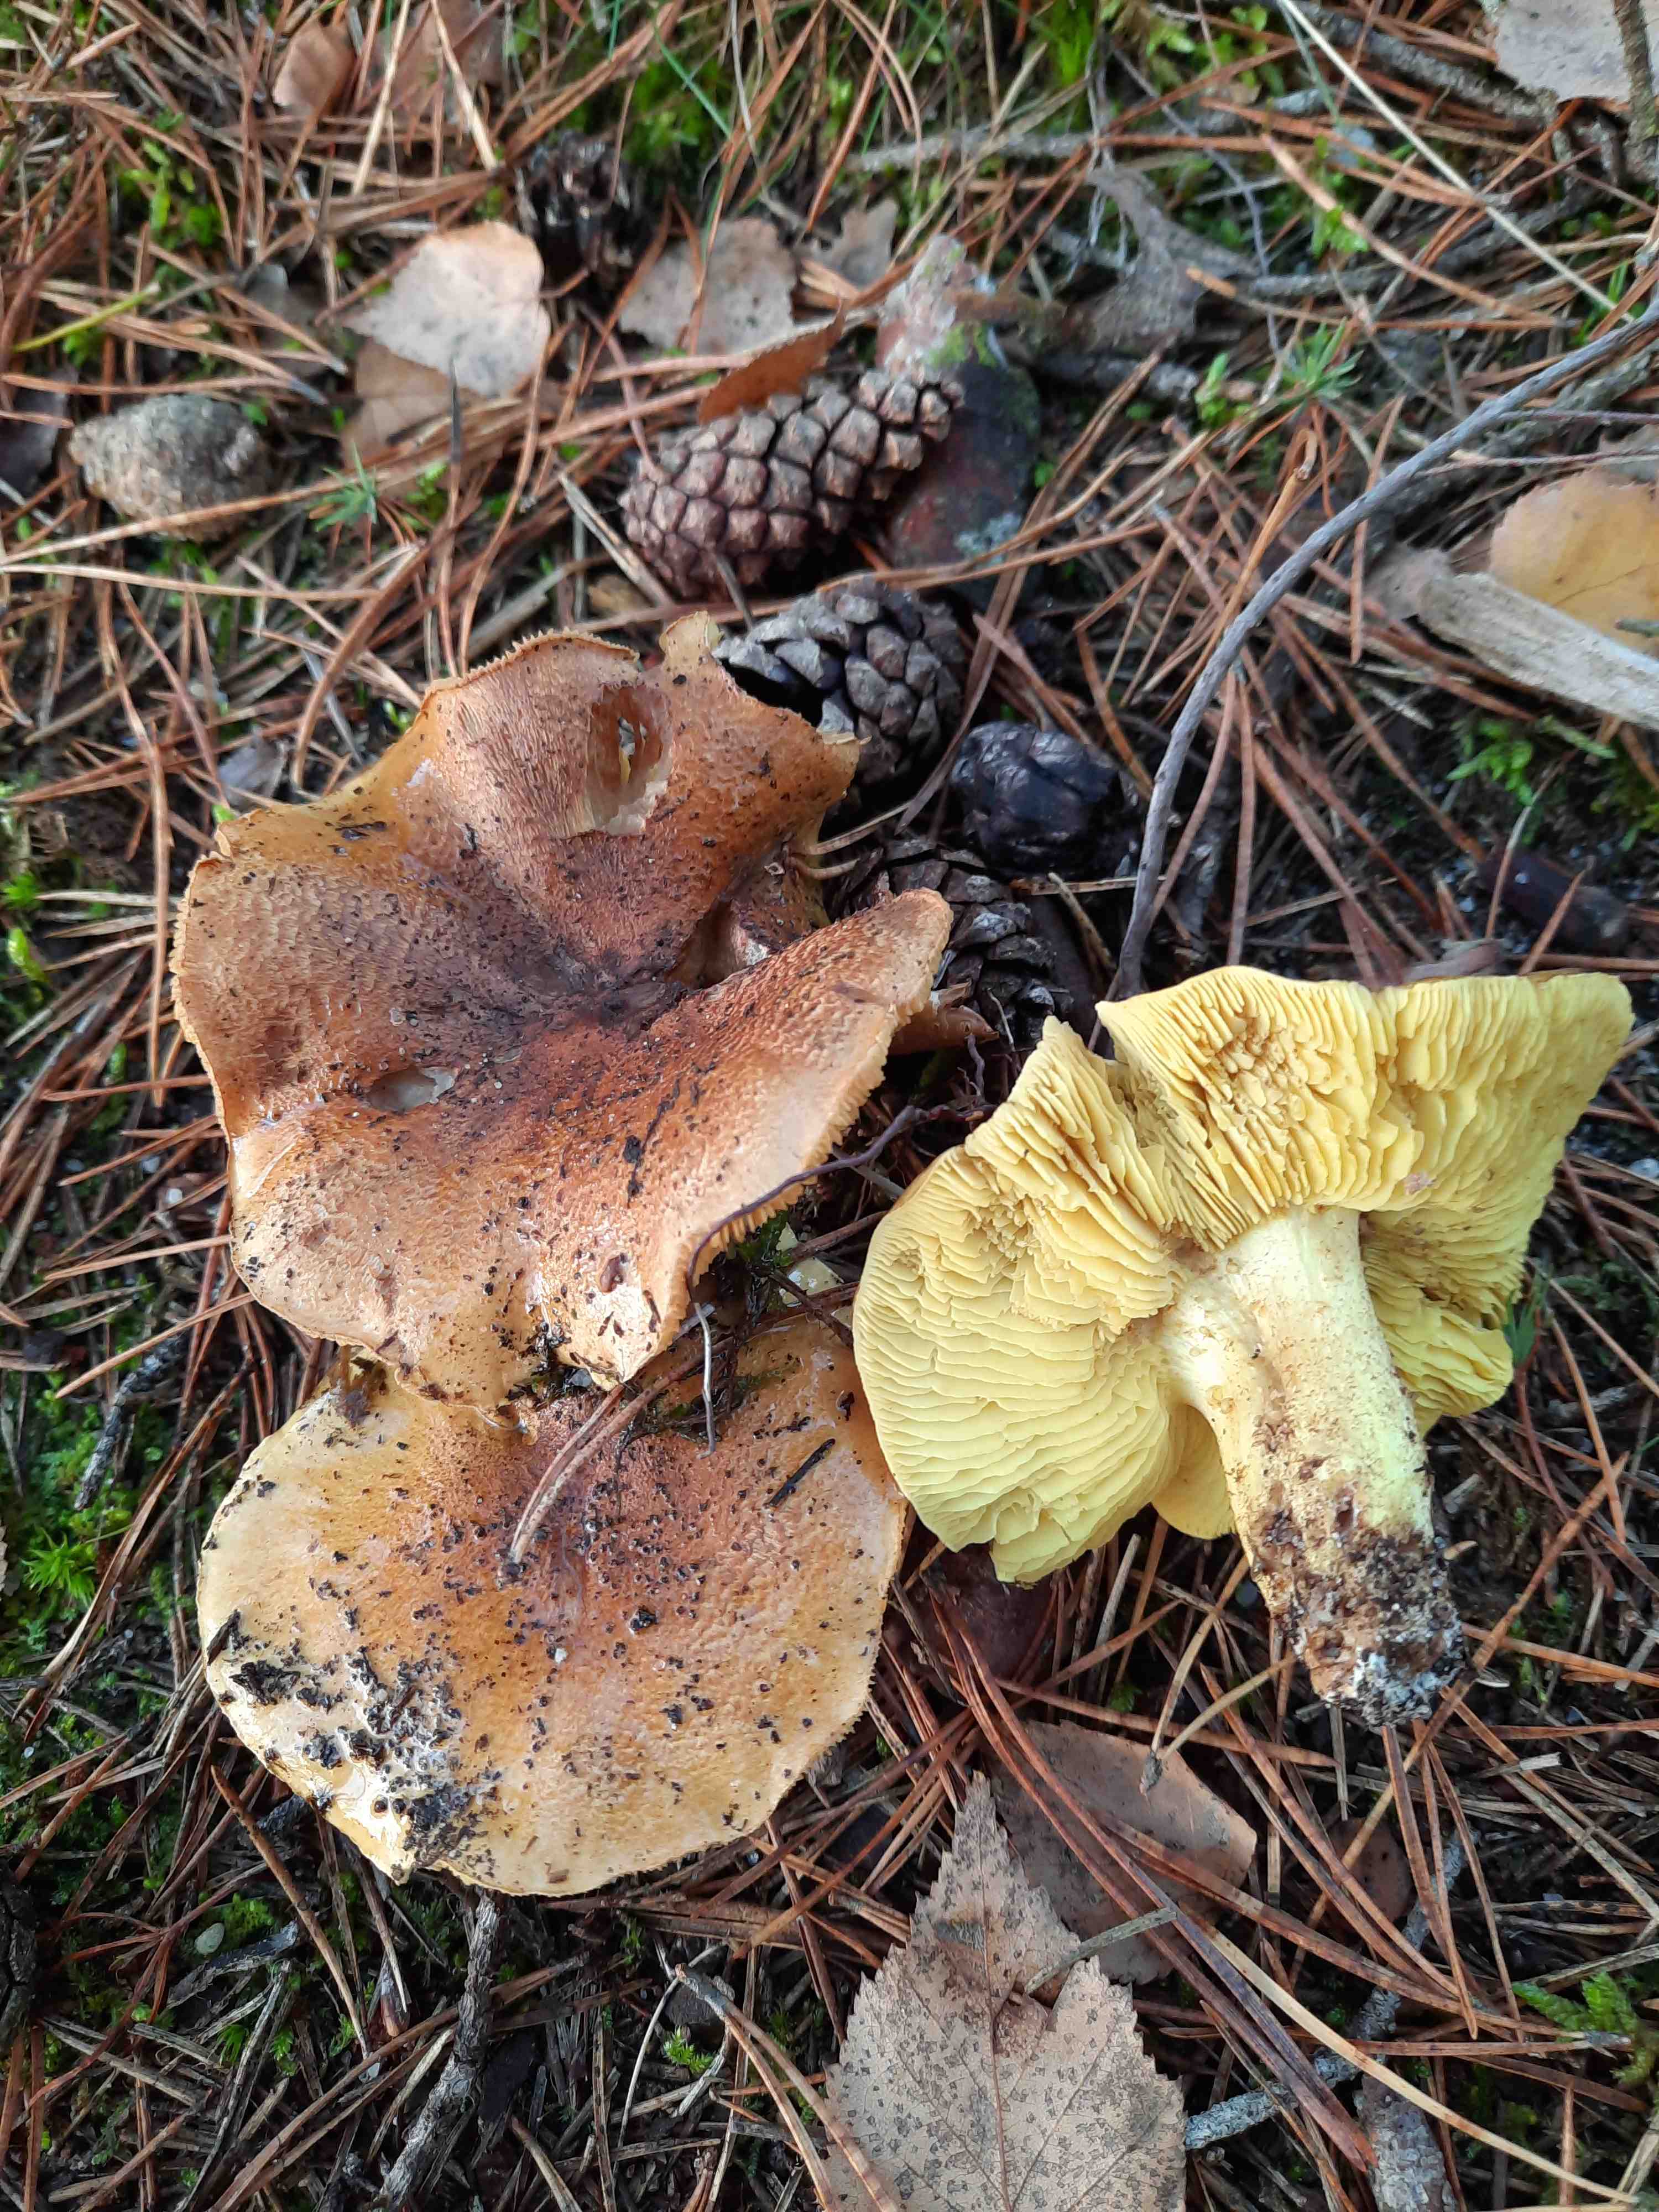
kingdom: Fungi
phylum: Basidiomycota
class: Agaricomycetes
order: Agaricales
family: Tricholomataceae
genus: Tricholoma
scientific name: Tricholoma equestre
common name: ægte ridderhat
